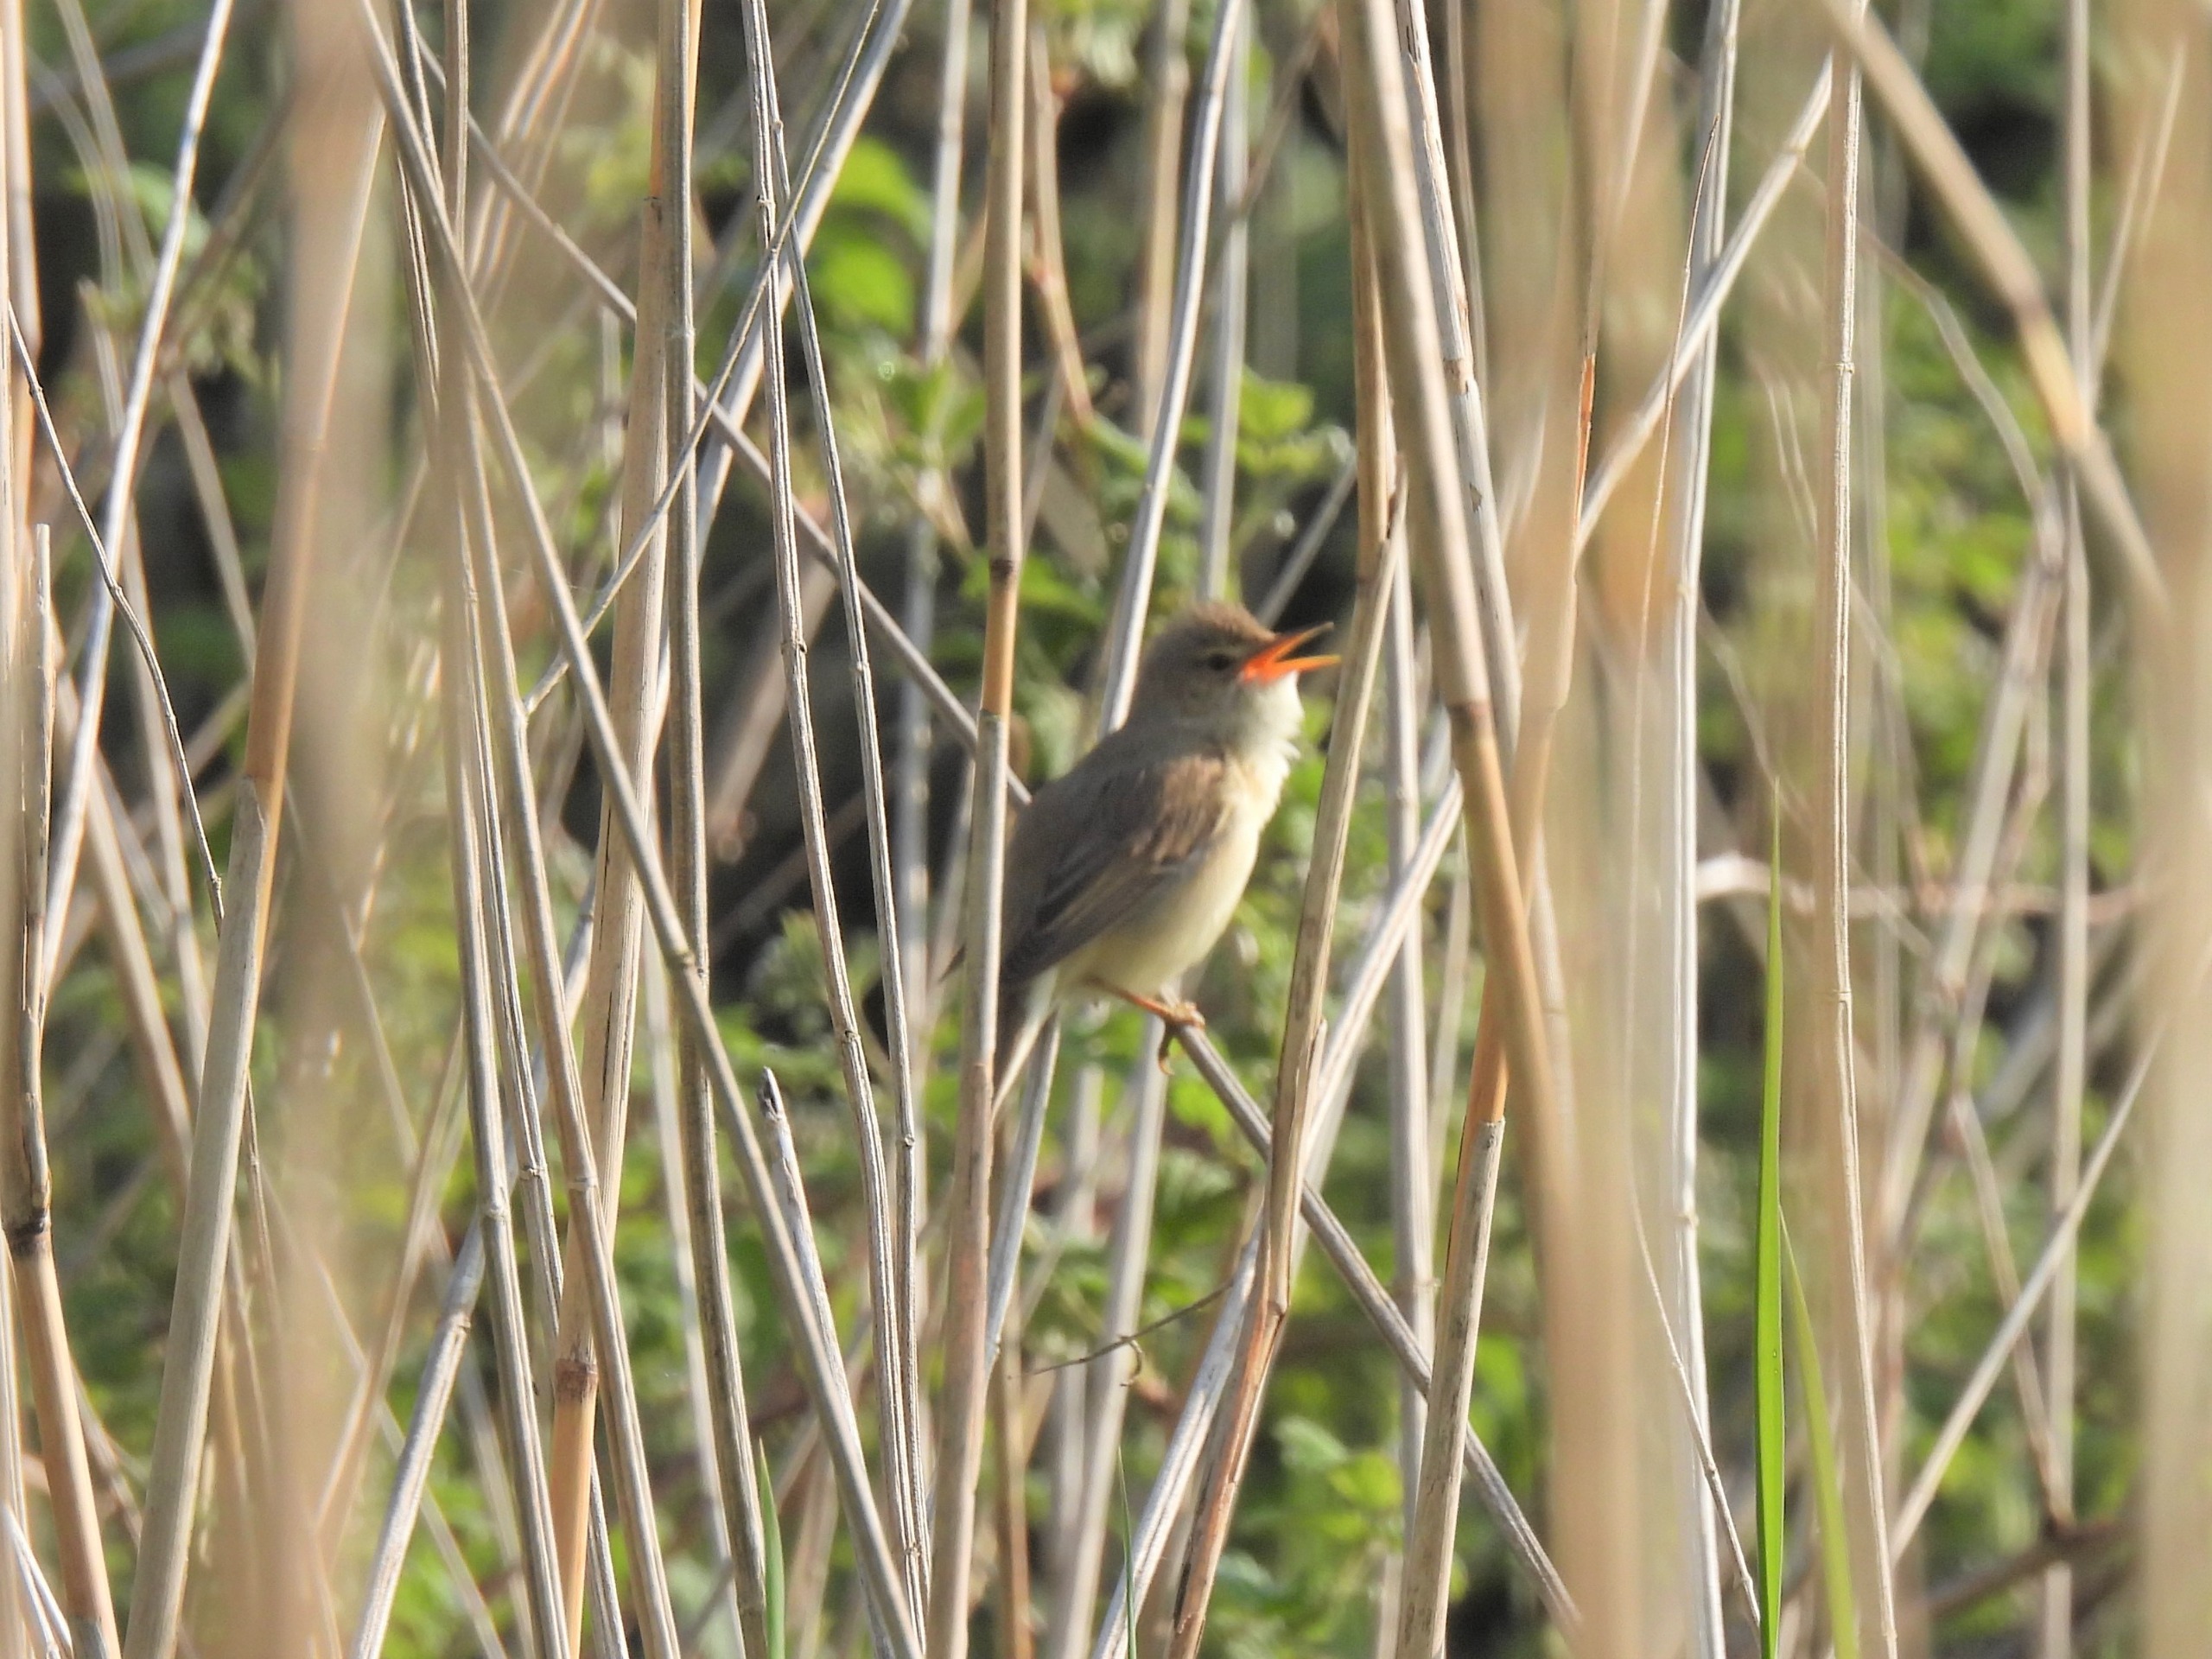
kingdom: Animalia
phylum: Chordata
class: Aves
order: Passeriformes
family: Acrocephalidae
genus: Acrocephalus
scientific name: Acrocephalus palustris
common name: Kærsanger
